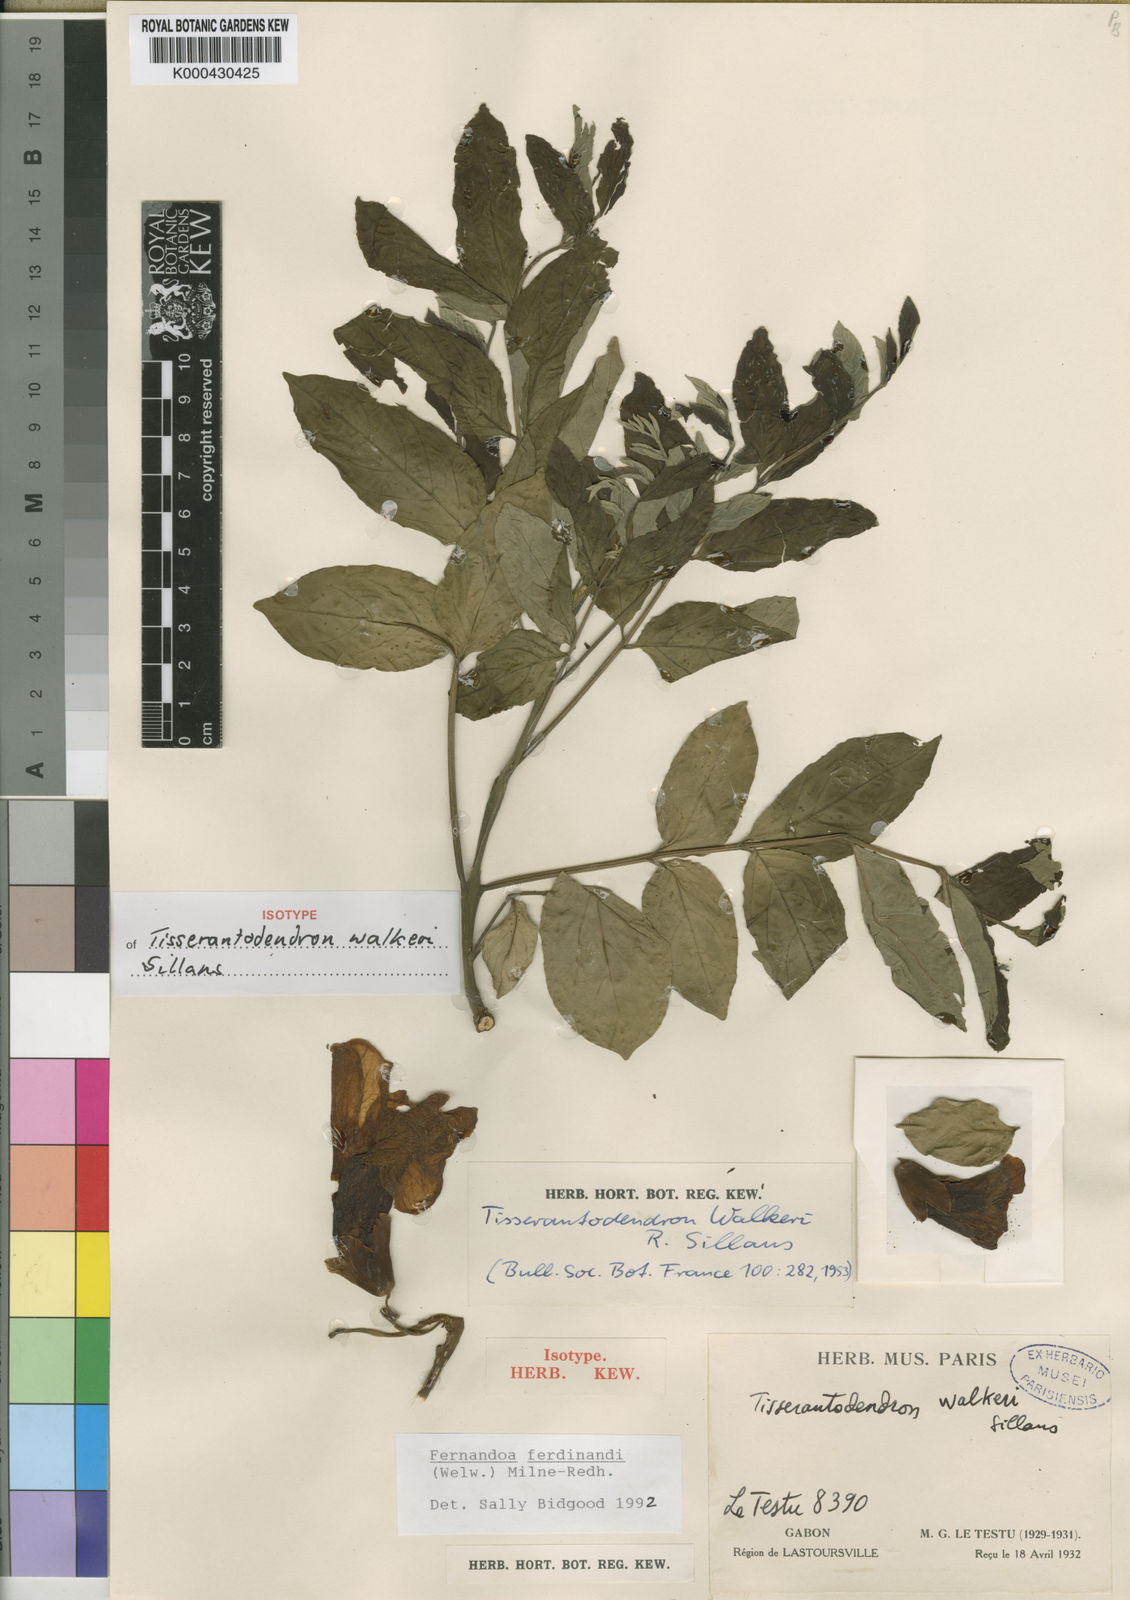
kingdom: Plantae
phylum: Tracheophyta
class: Magnoliopsida
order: Lamiales
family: Bignoniaceae
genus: Fernandoa
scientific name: Fernandoa
